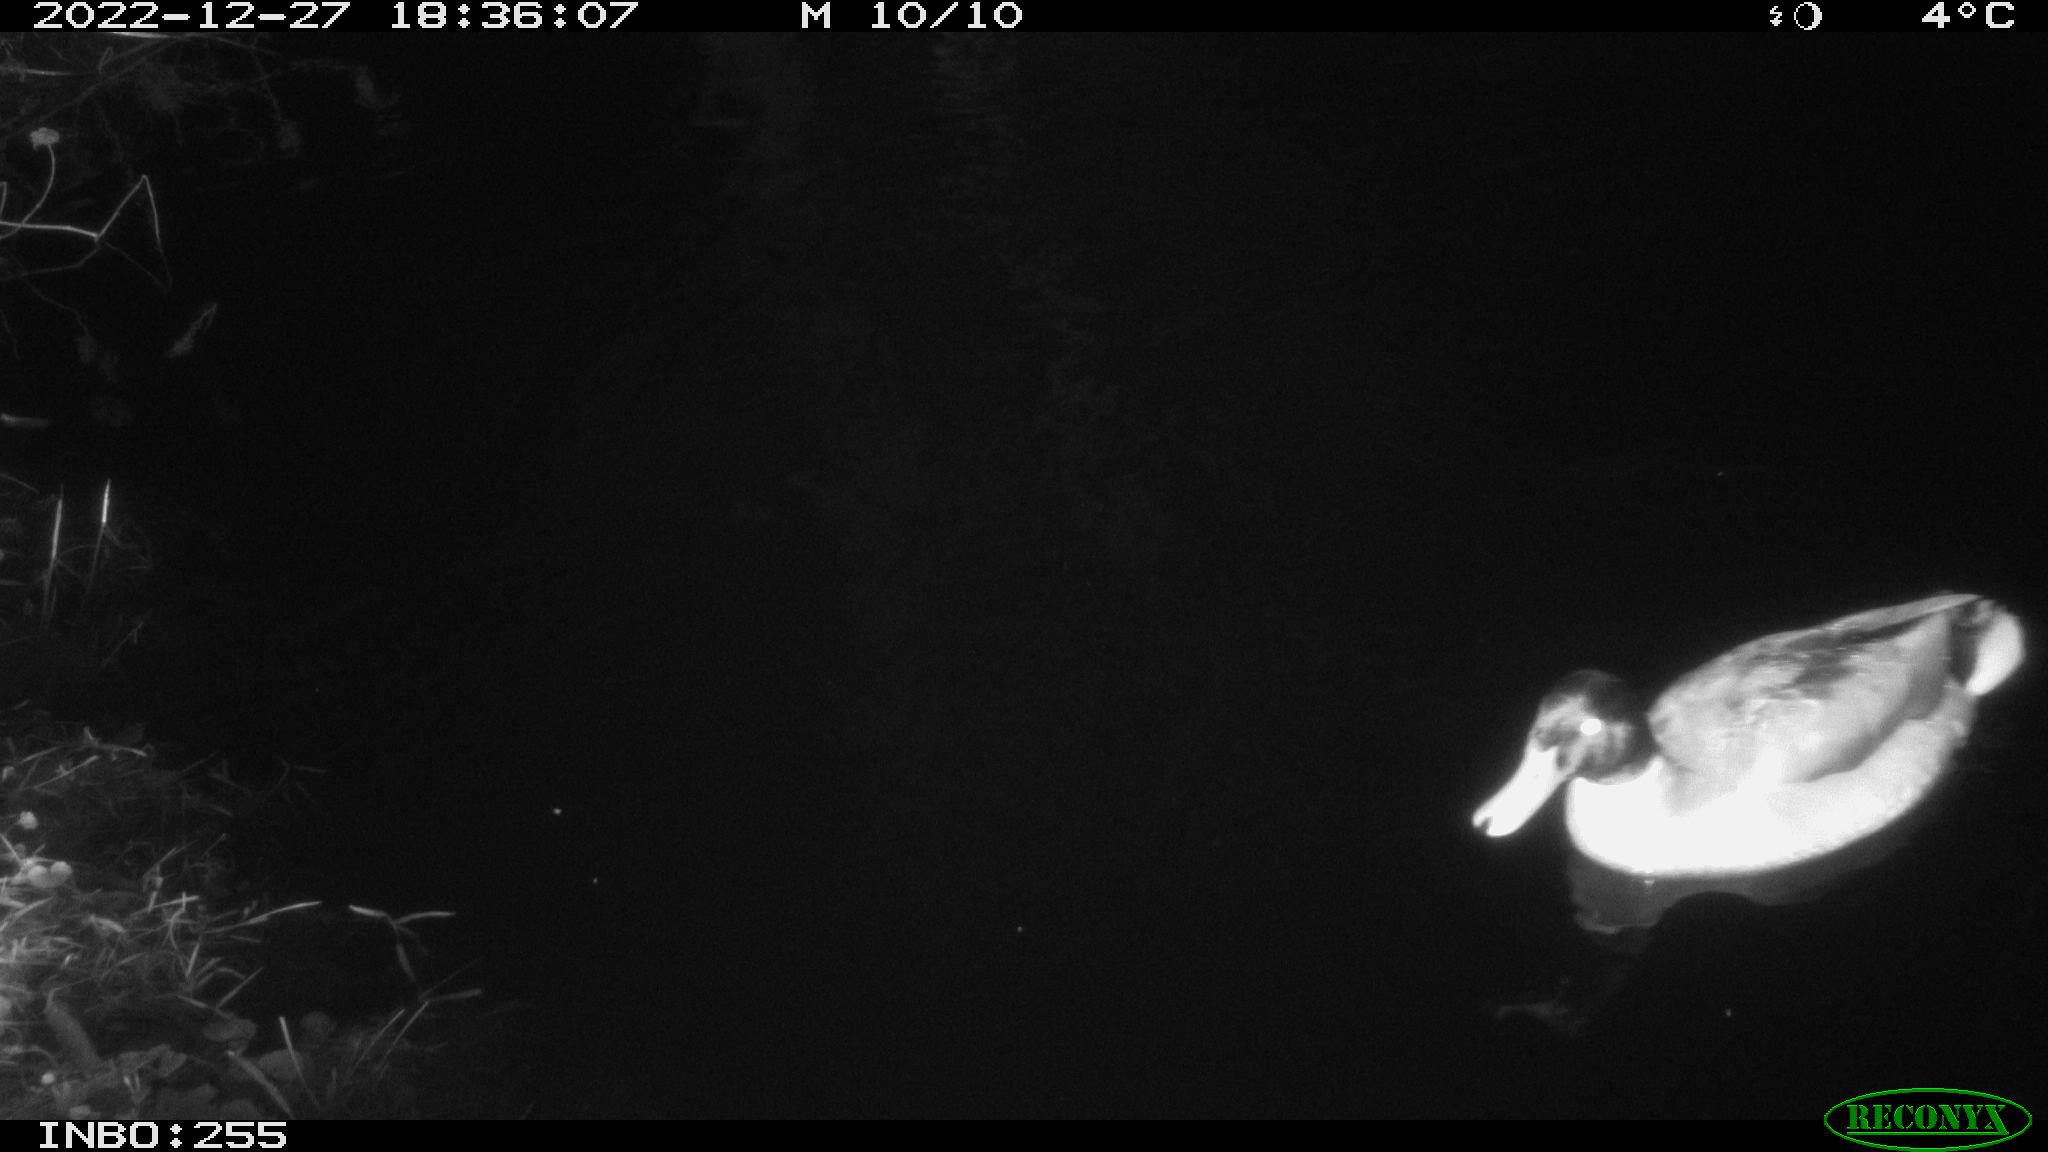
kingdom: Animalia
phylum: Chordata
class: Aves
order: Anseriformes
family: Anatidae
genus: Anas
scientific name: Anas
